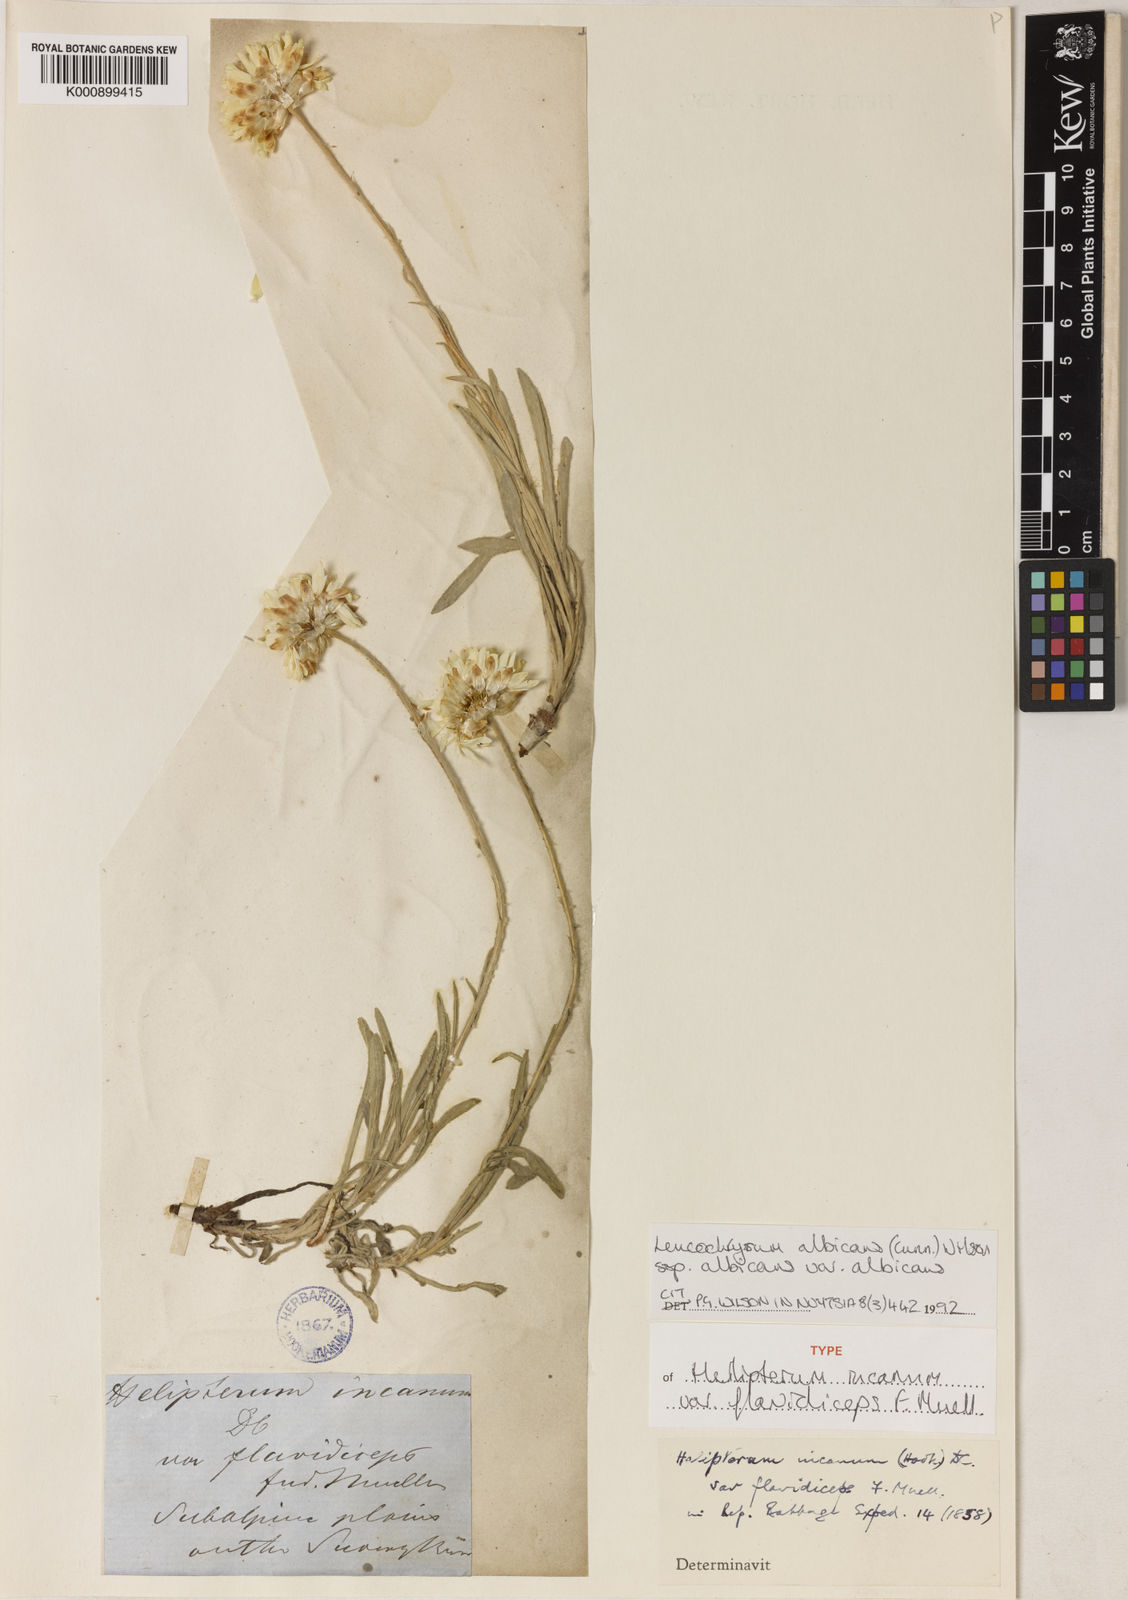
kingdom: Plantae
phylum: Tracheophyta
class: Magnoliopsida
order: Asterales
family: Asteraceae
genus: Leucochrysum
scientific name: Leucochrysum albicans
